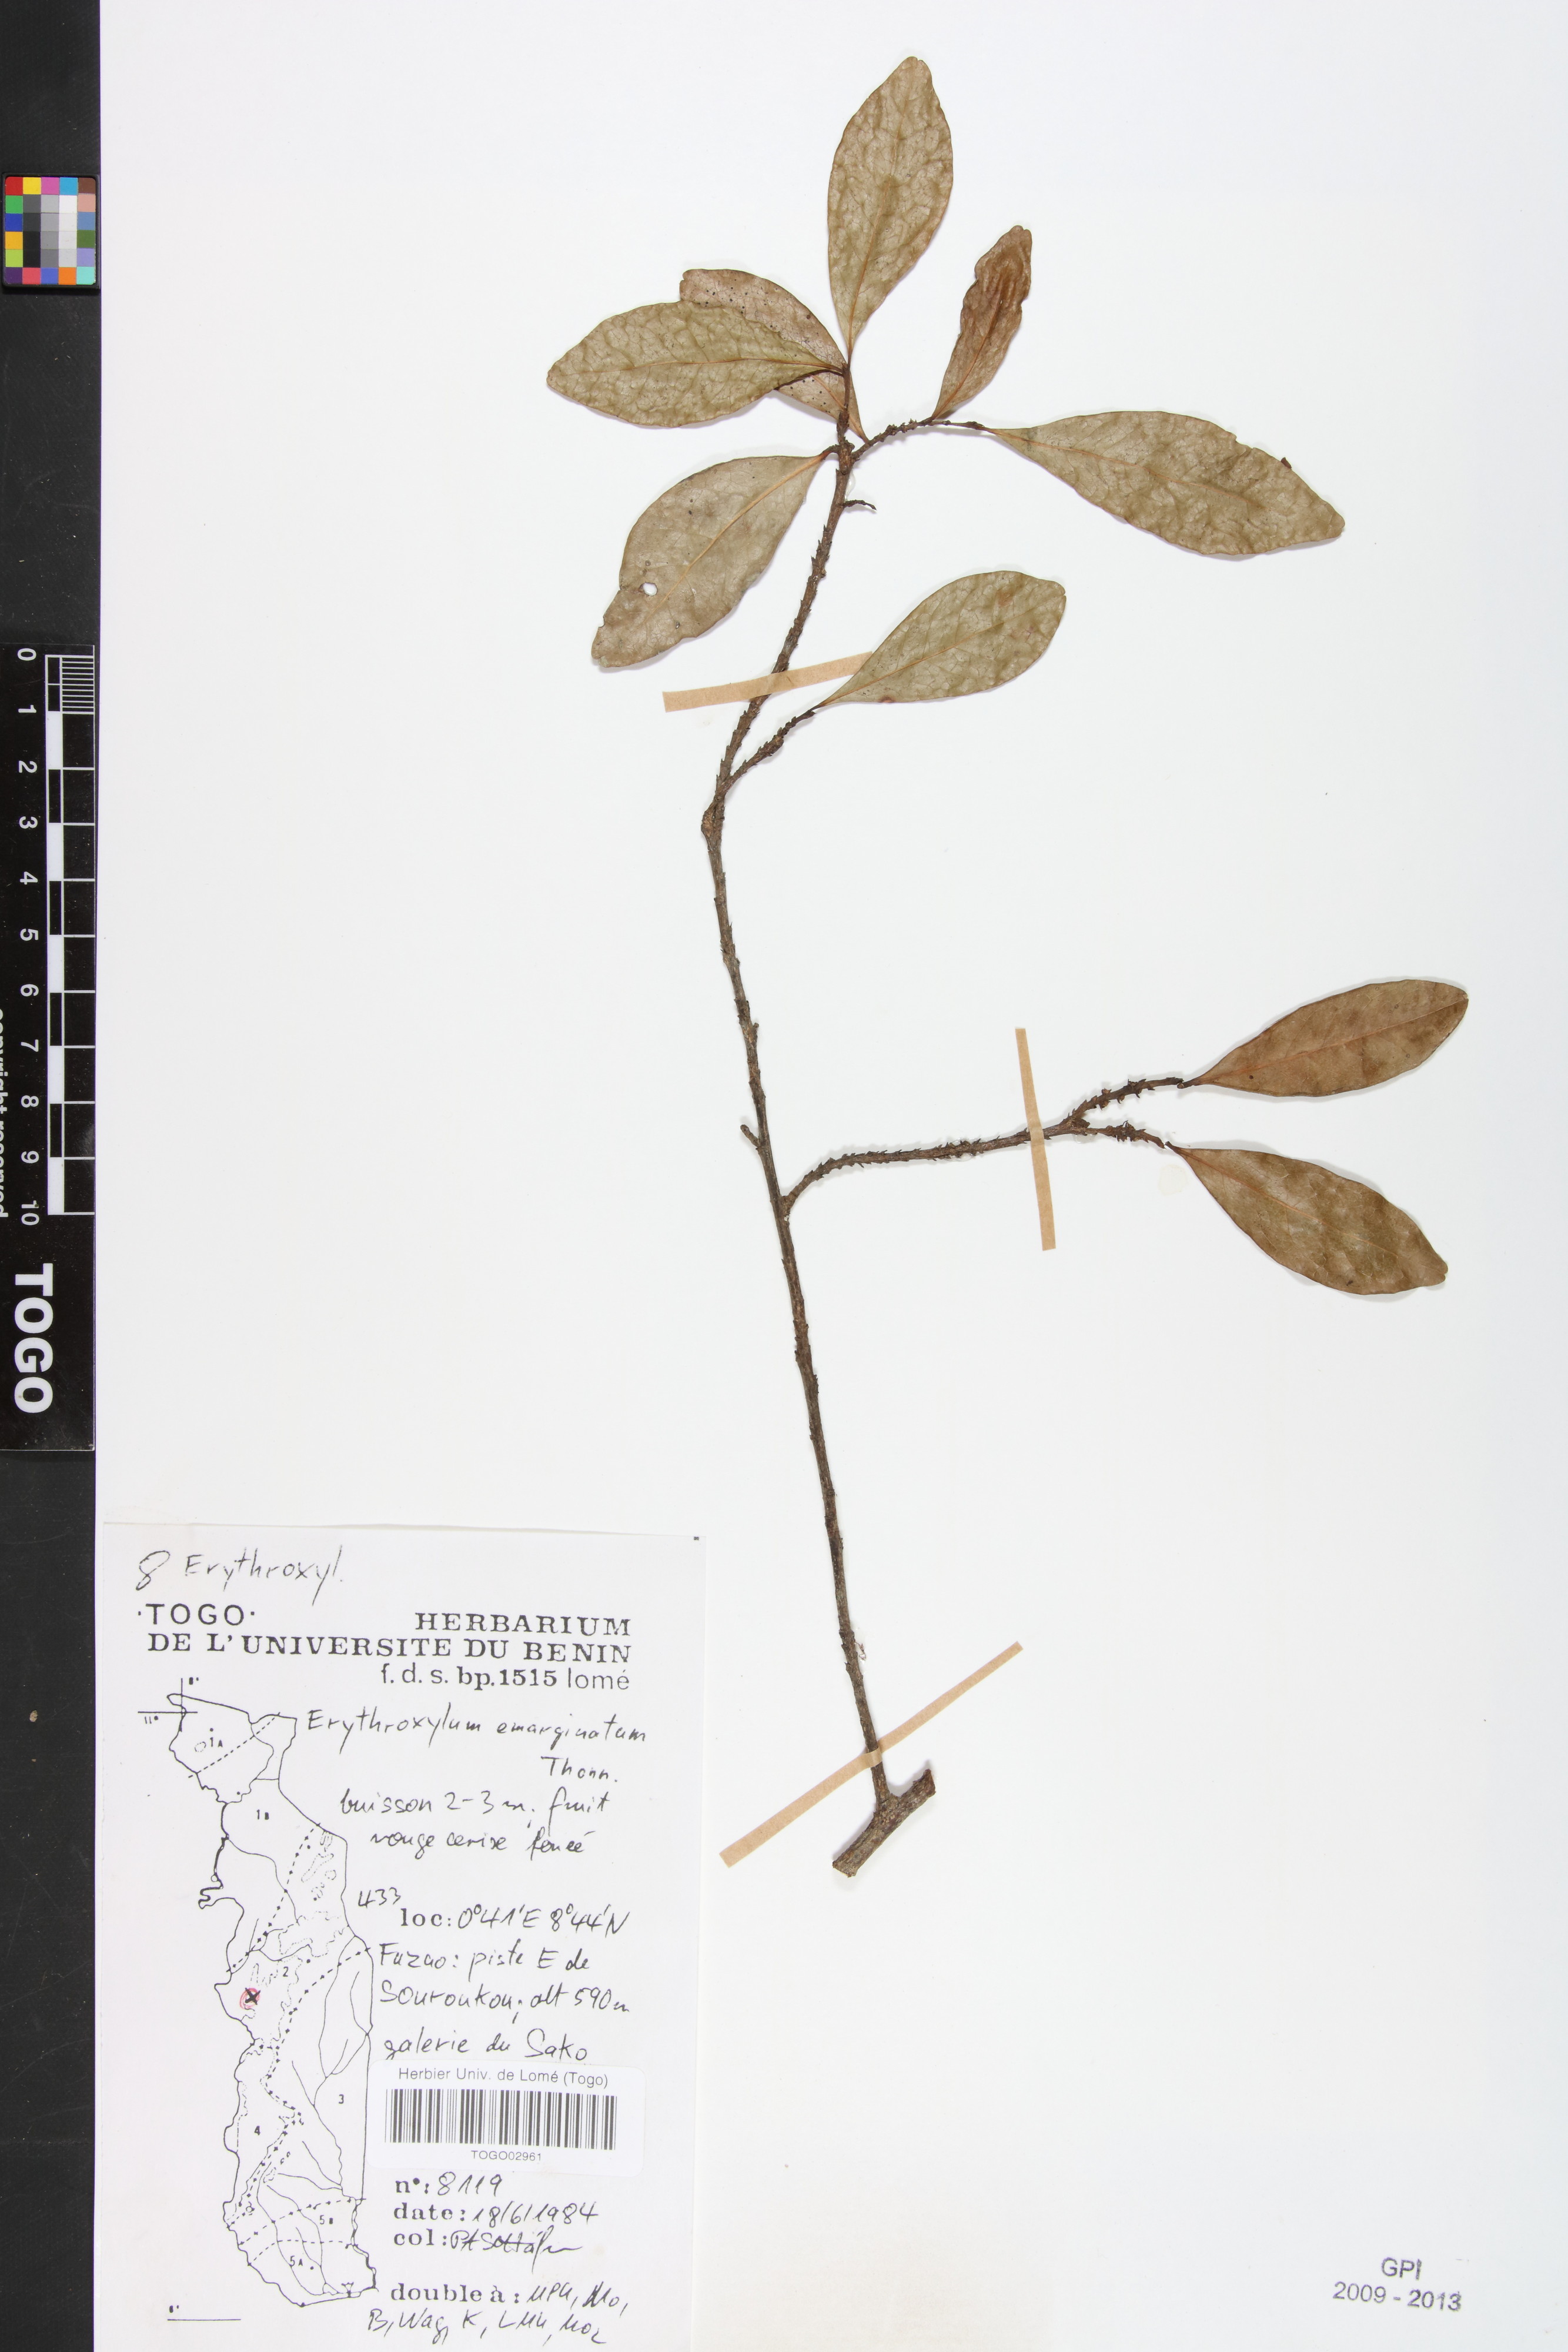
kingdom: Plantae
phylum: Tracheophyta
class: Magnoliopsida
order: Malpighiales
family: Erythroxylaceae
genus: Erythroxylum
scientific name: Erythroxylum emarginatum
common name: African coca-tree
